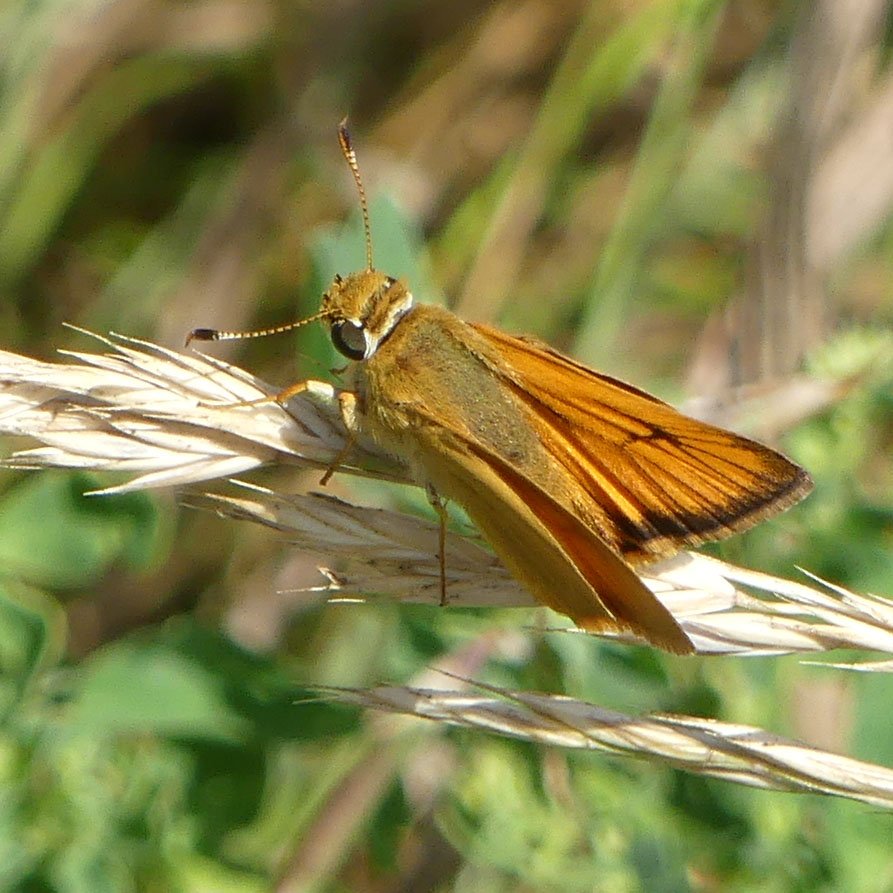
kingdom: Animalia
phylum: Arthropoda
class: Insecta
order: Lepidoptera
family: Hesperiidae
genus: Atrytone
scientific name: Atrytone delaware
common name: Delaware Skipper
